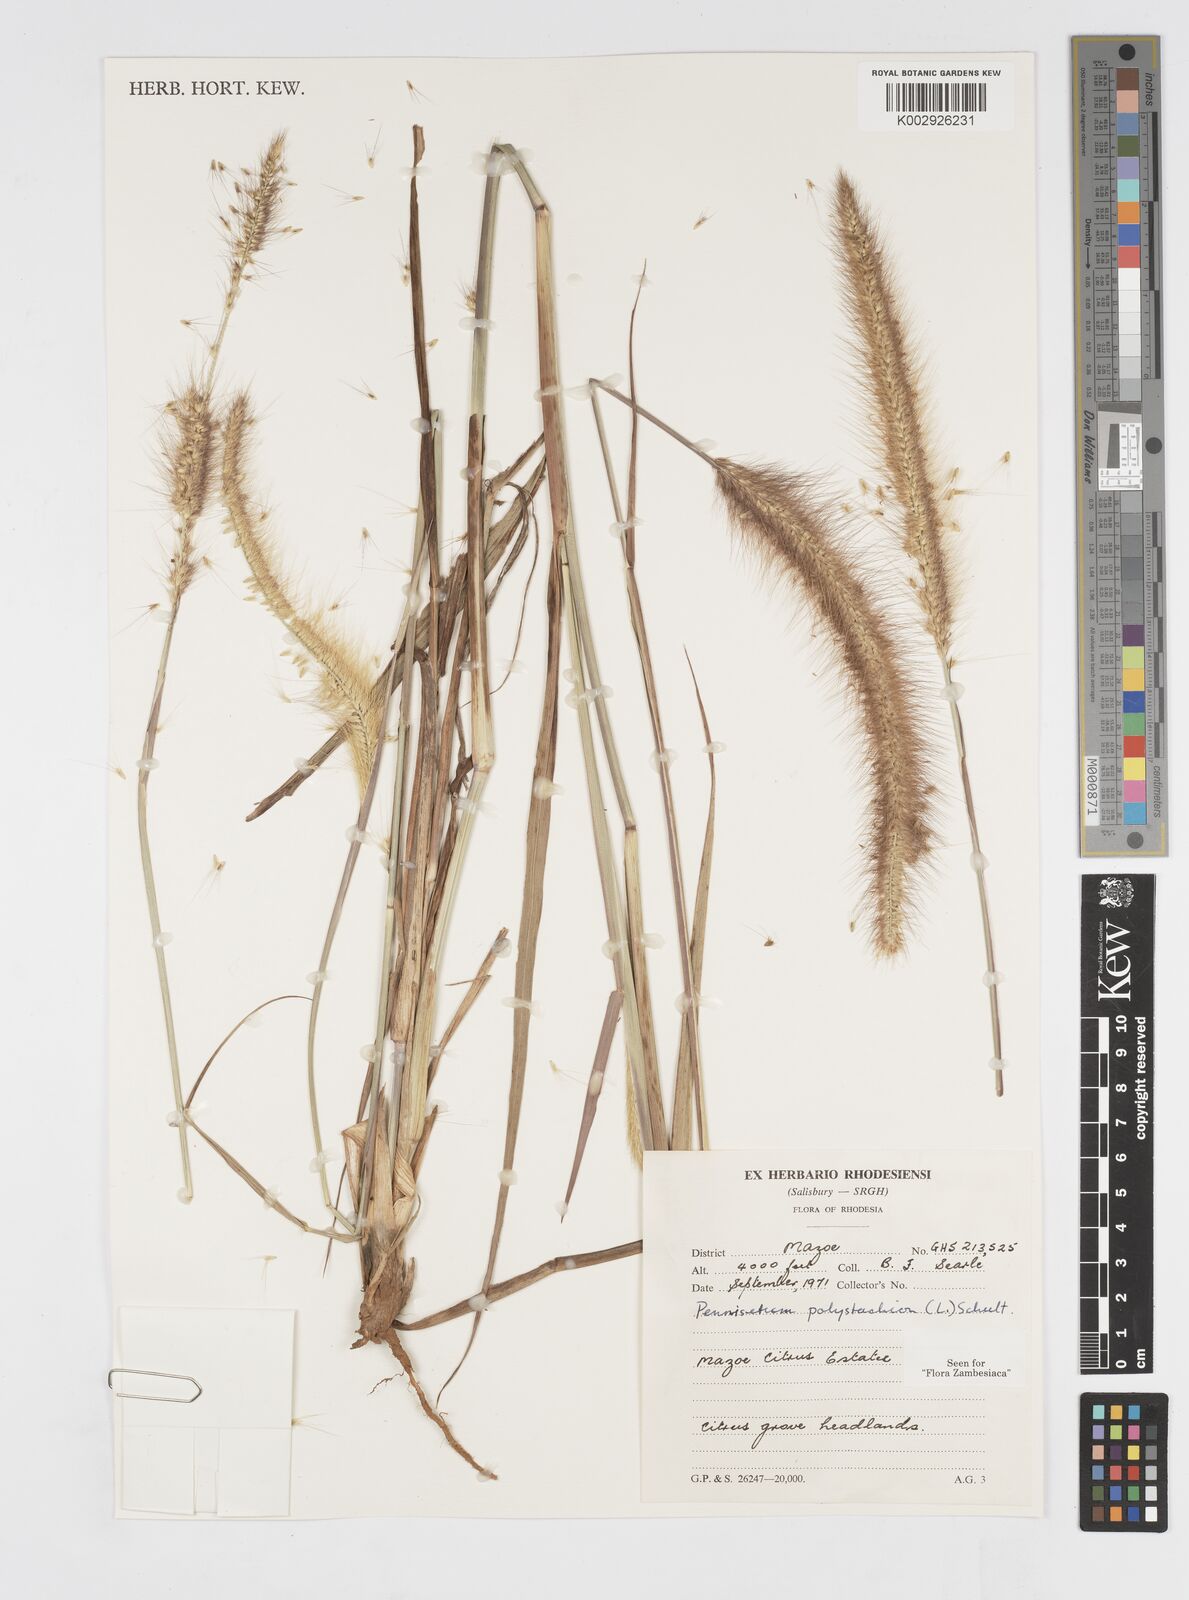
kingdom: Plantae
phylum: Tracheophyta
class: Liliopsida
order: Poales
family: Poaceae
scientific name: Poaceae
